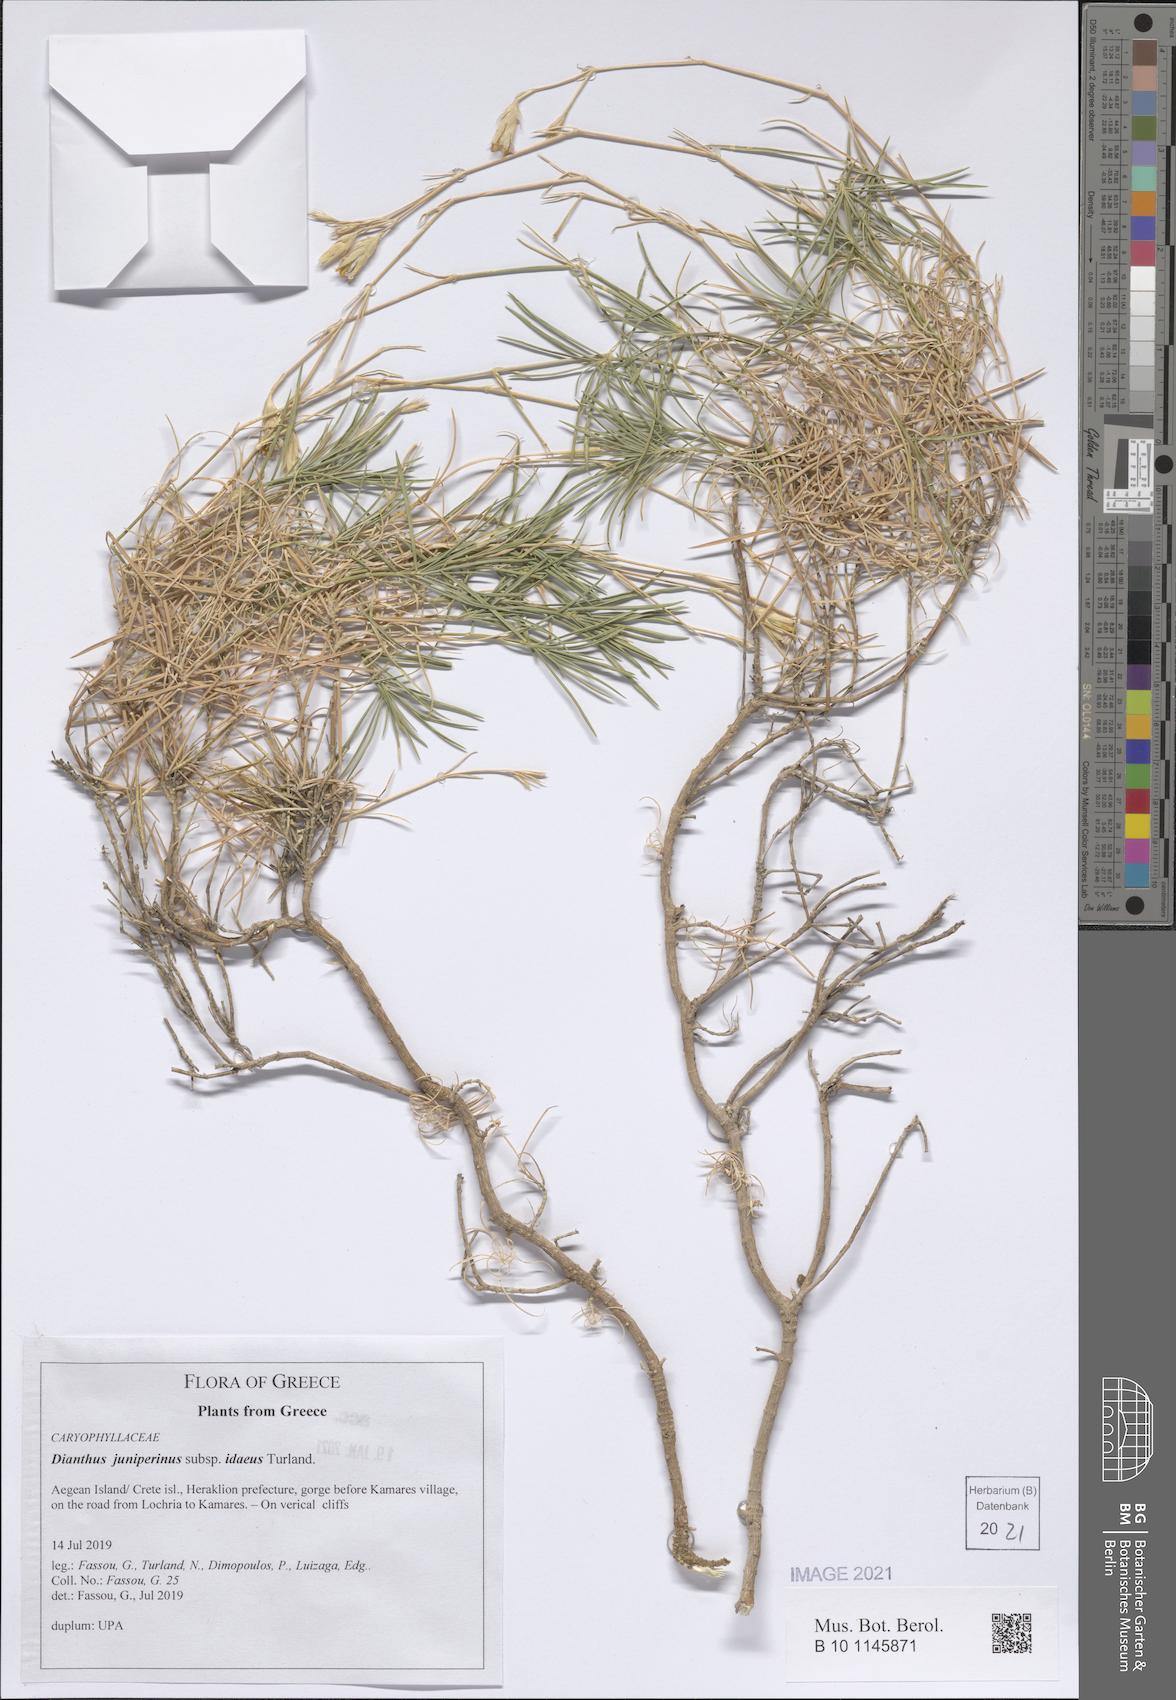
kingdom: Plantae
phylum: Tracheophyta
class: Magnoliopsida
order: Caryophyllales
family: Caryophyllaceae
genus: Dianthus
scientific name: Dianthus juniperinus
